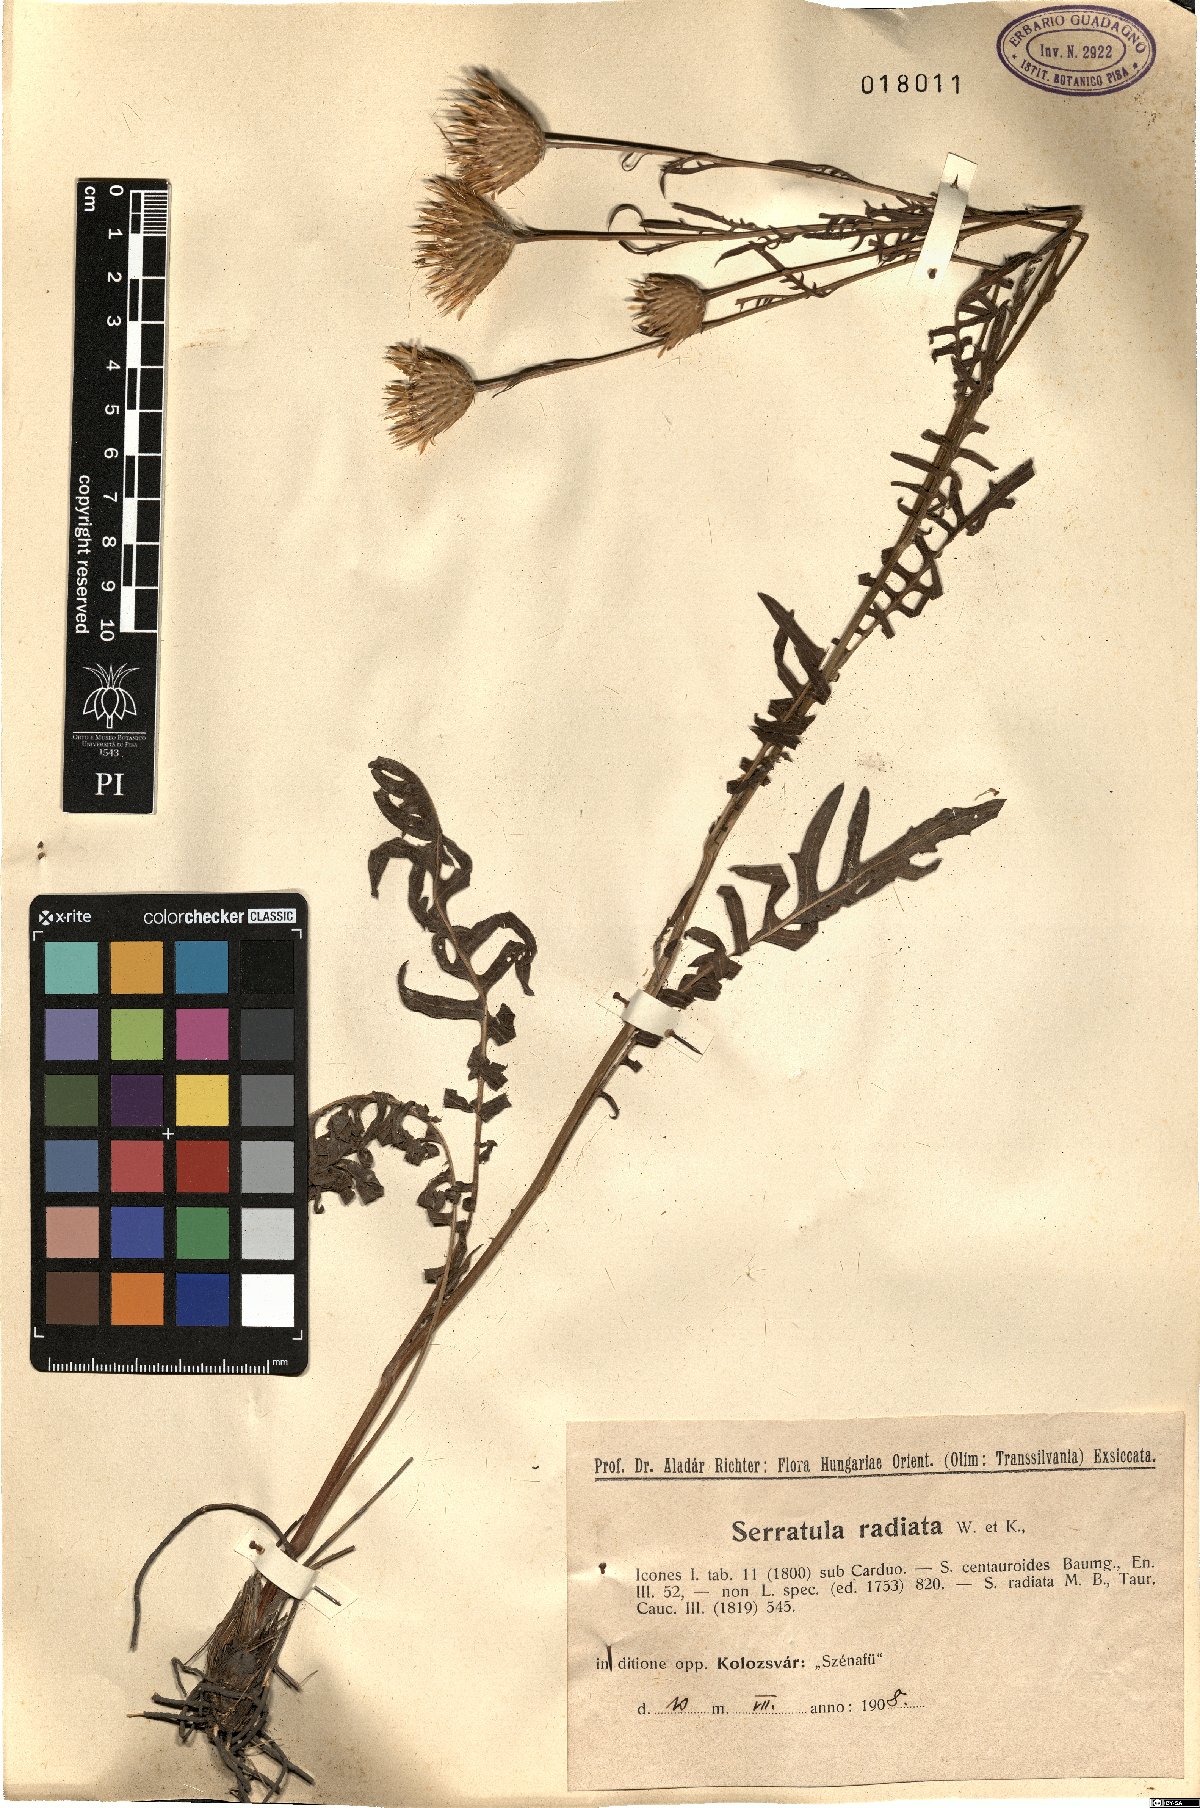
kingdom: Plantae
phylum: Tracheophyta
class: Magnoliopsida
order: Asterales
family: Asteraceae
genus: Klasea
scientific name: Klasea radiata
